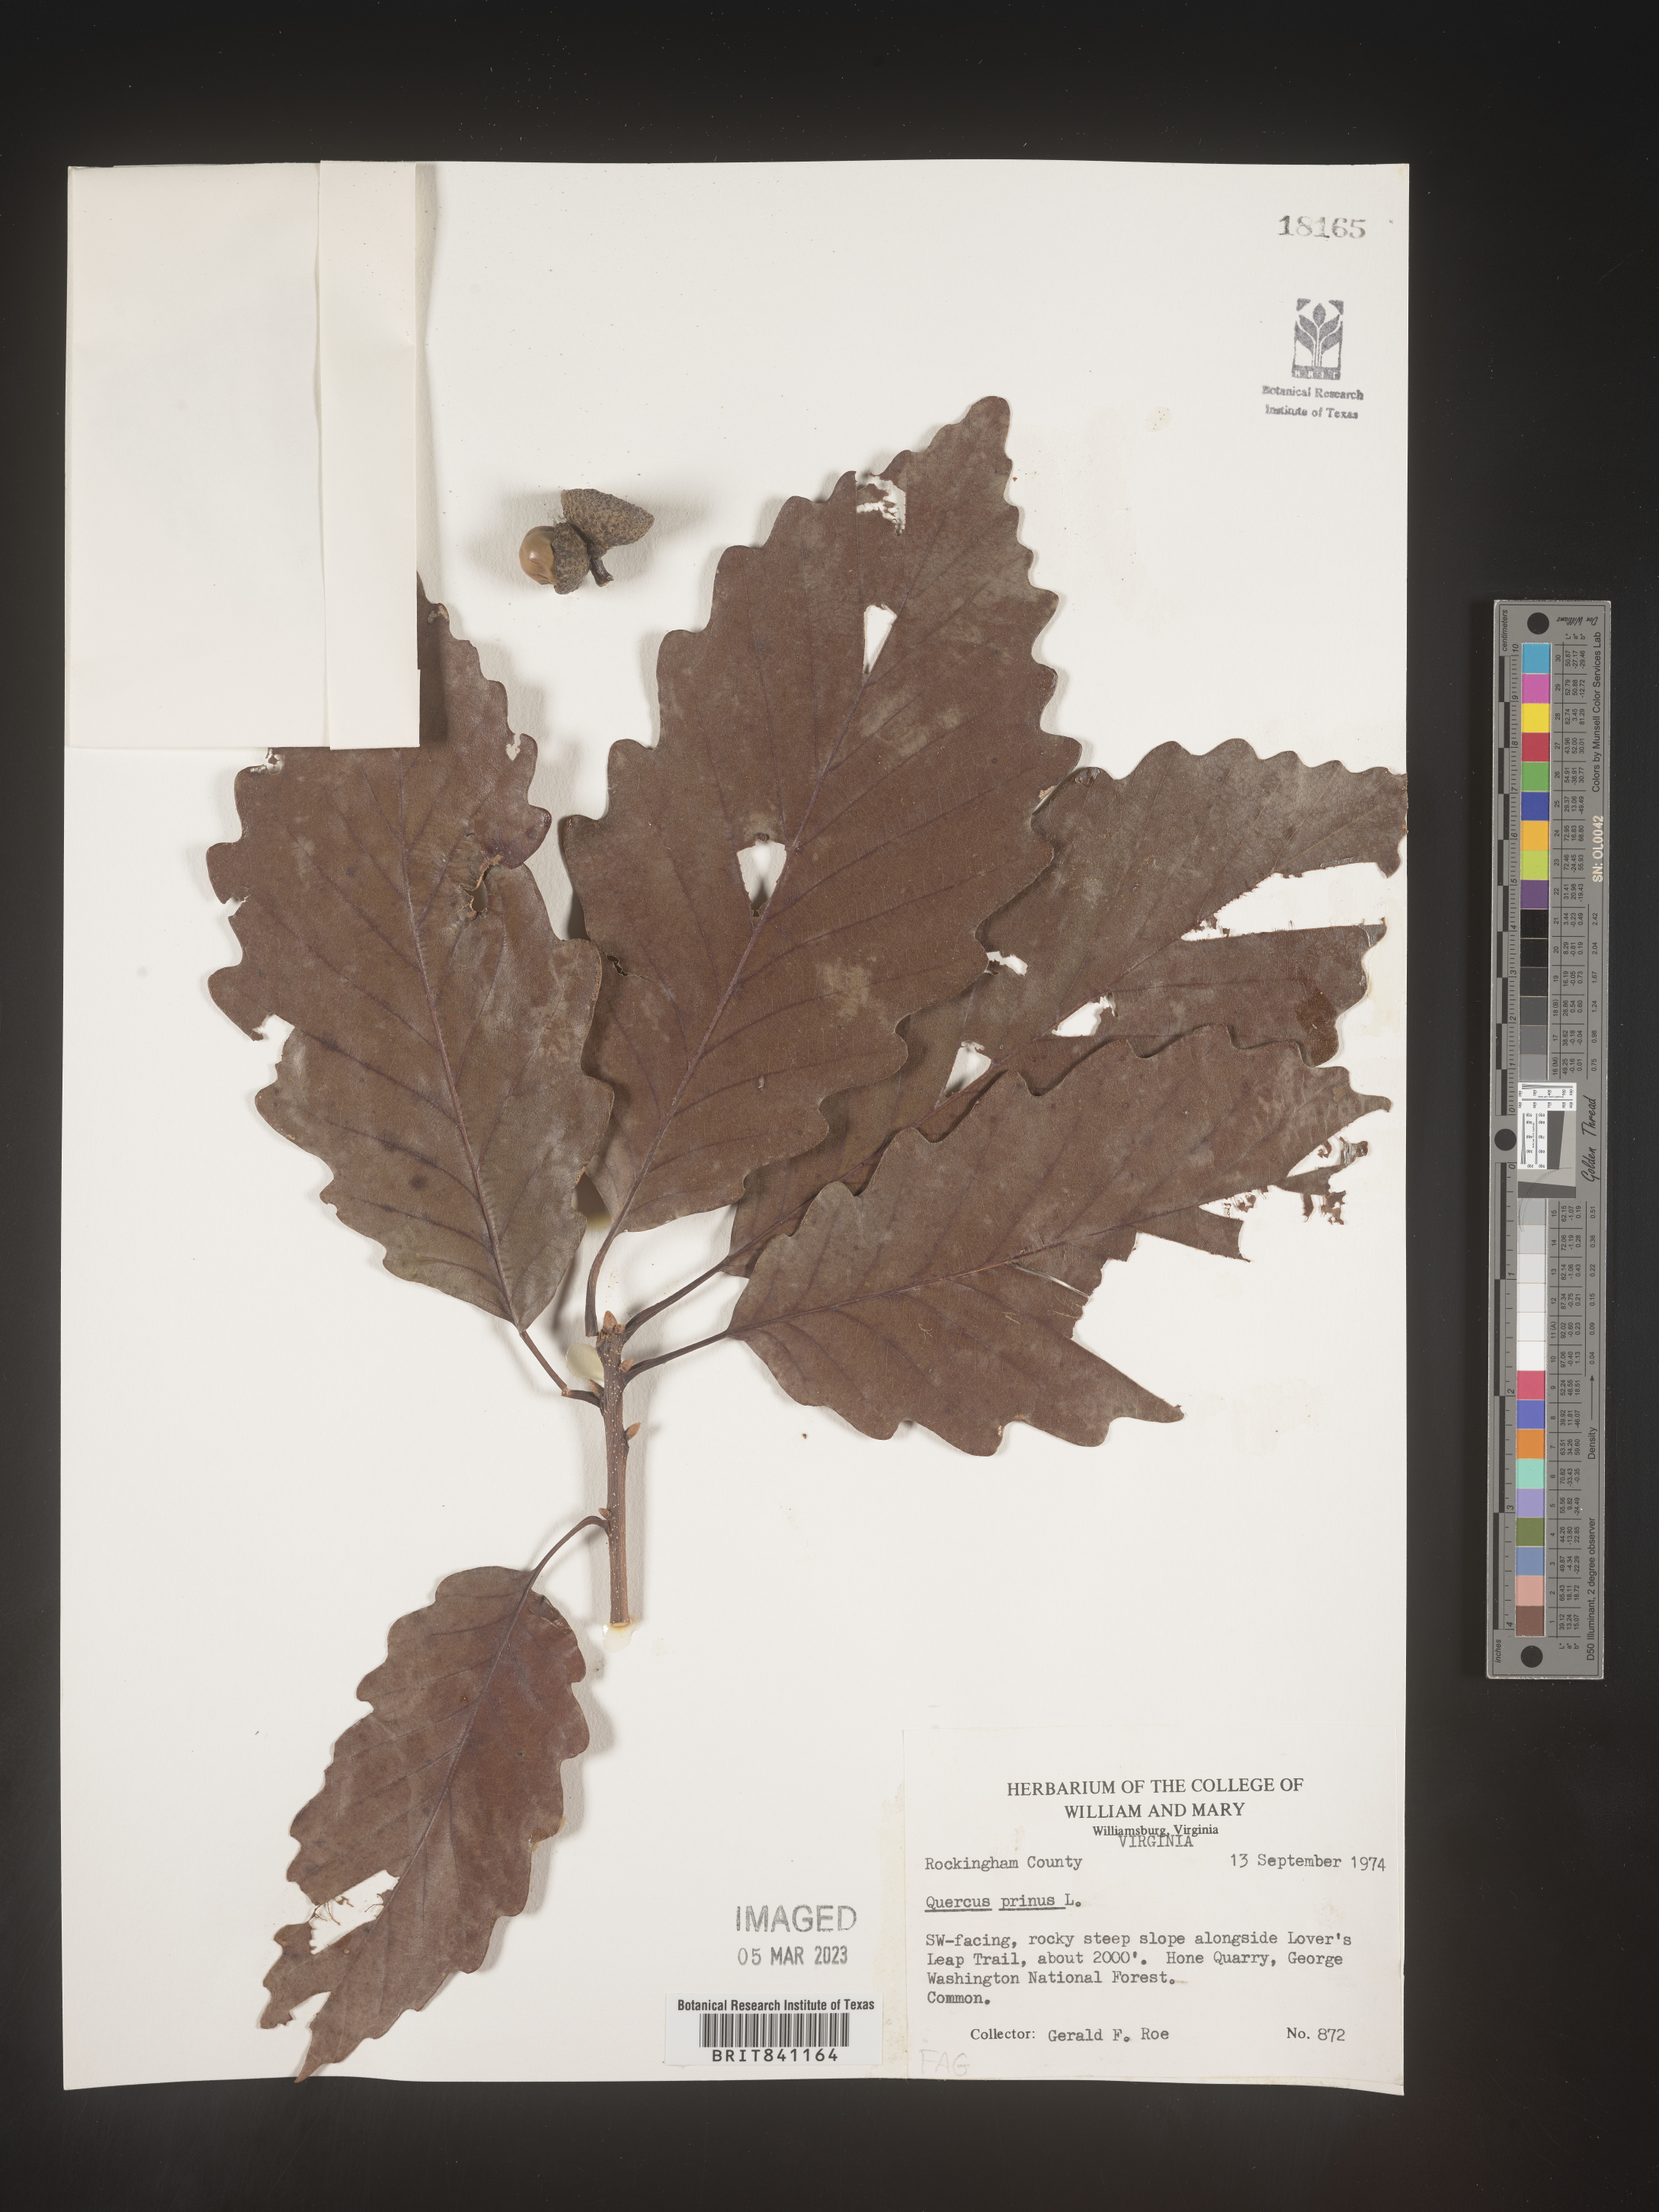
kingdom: Plantae
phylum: Tracheophyta
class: Magnoliopsida
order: Fagales
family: Fagaceae
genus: Quercus
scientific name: Quercus michauxii
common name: Swamp chestnut oak
